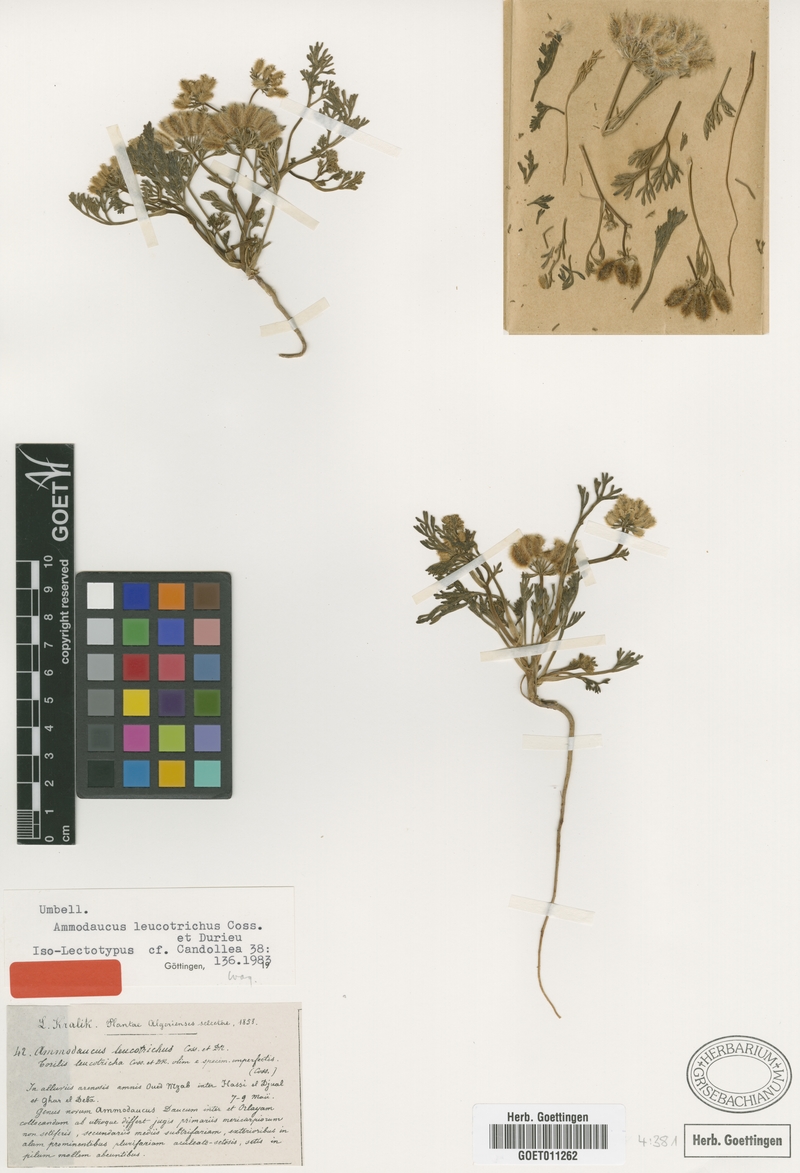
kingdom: Plantae
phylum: Tracheophyta
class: Magnoliopsida
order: Apiales
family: Apiaceae
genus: Ammodaucus
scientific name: Ammodaucus leucotrichus
